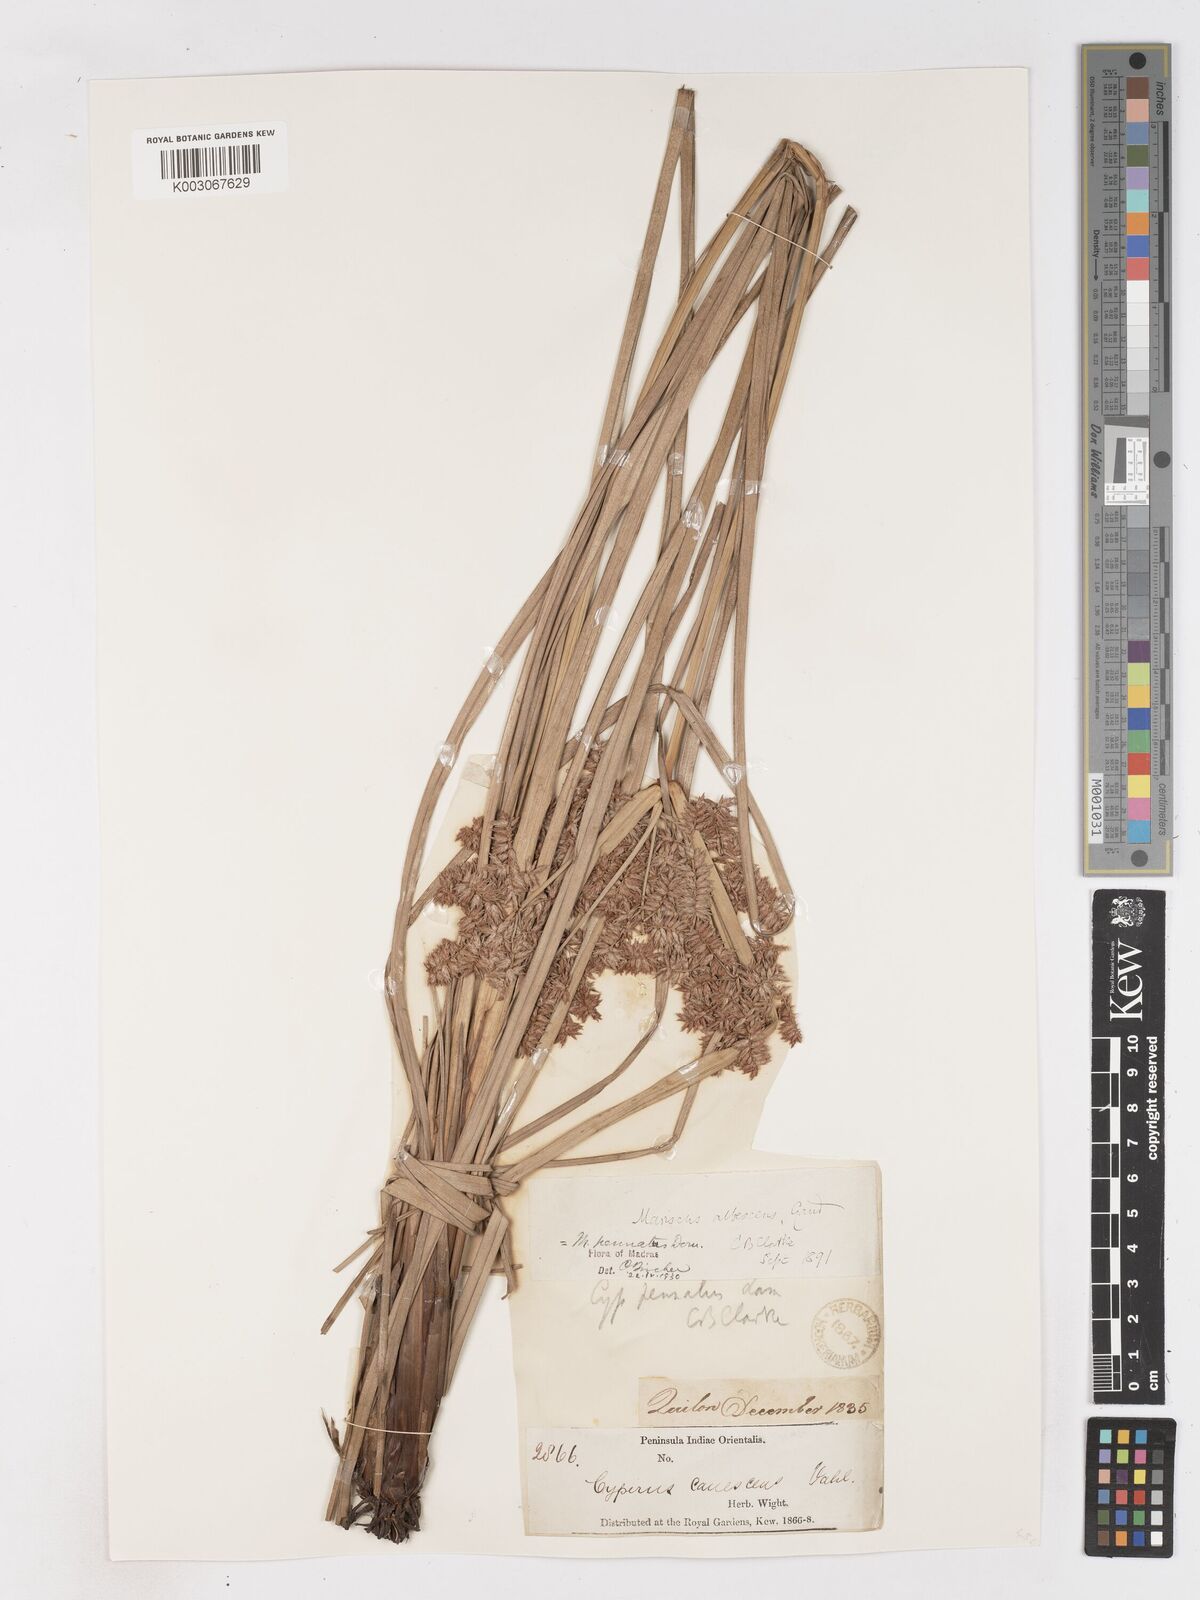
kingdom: Plantae
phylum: Tracheophyta
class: Liliopsida
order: Poales
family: Cyperaceae
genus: Cyperus
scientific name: Cyperus javanicus
